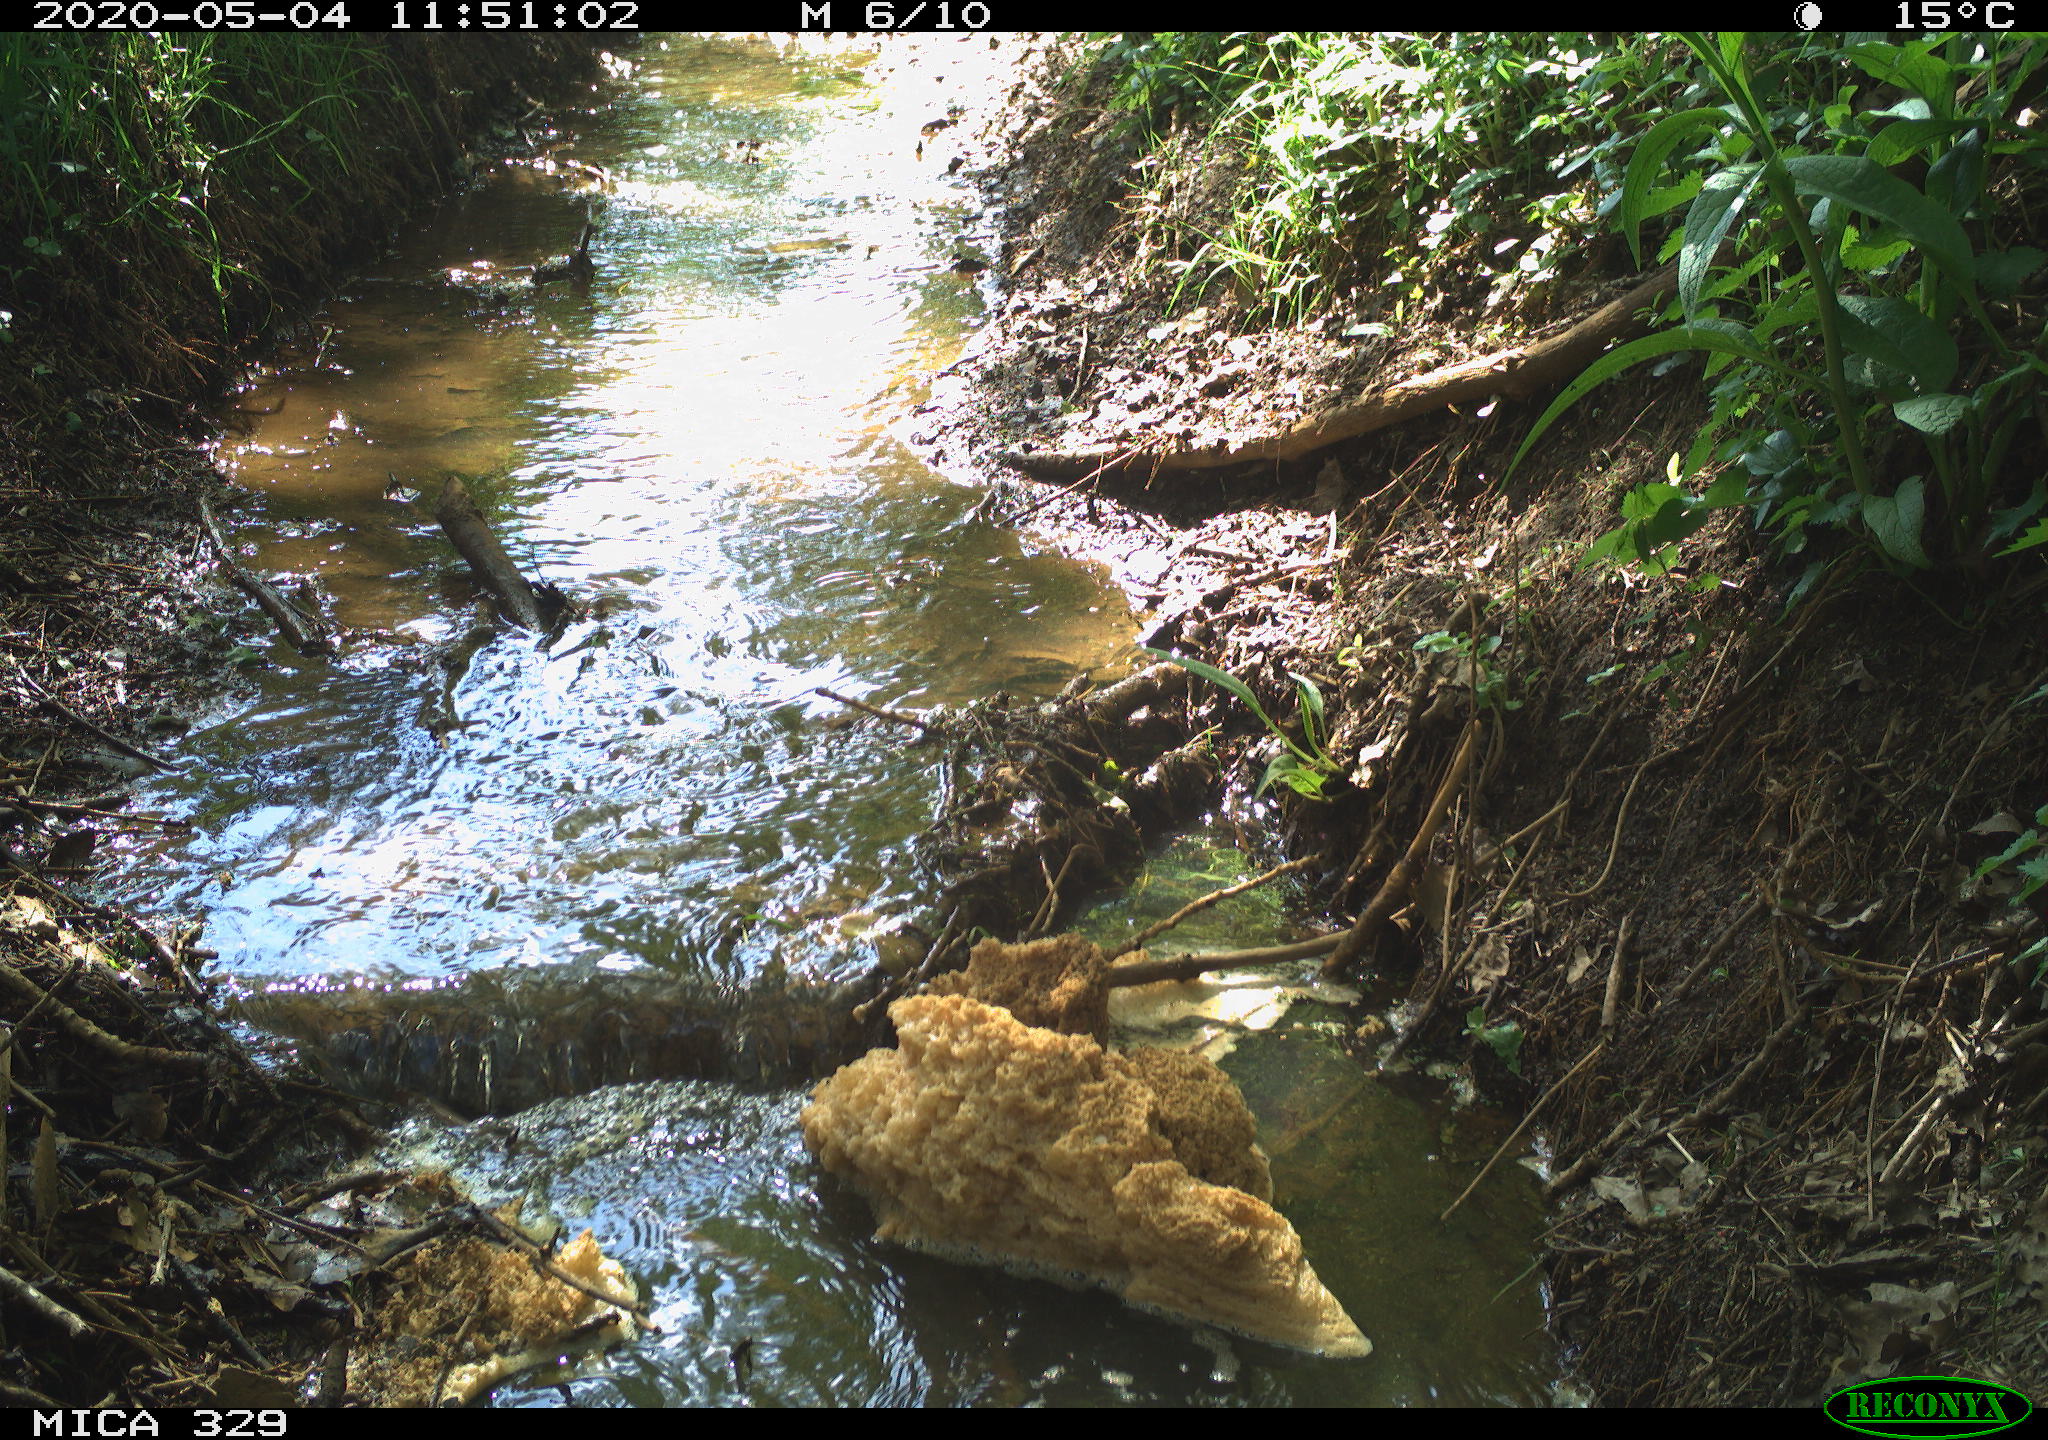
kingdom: Animalia
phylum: Chordata
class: Mammalia
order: Rodentia
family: Cricetidae
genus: Ondatra
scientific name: Ondatra zibethicus
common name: Muskrat
